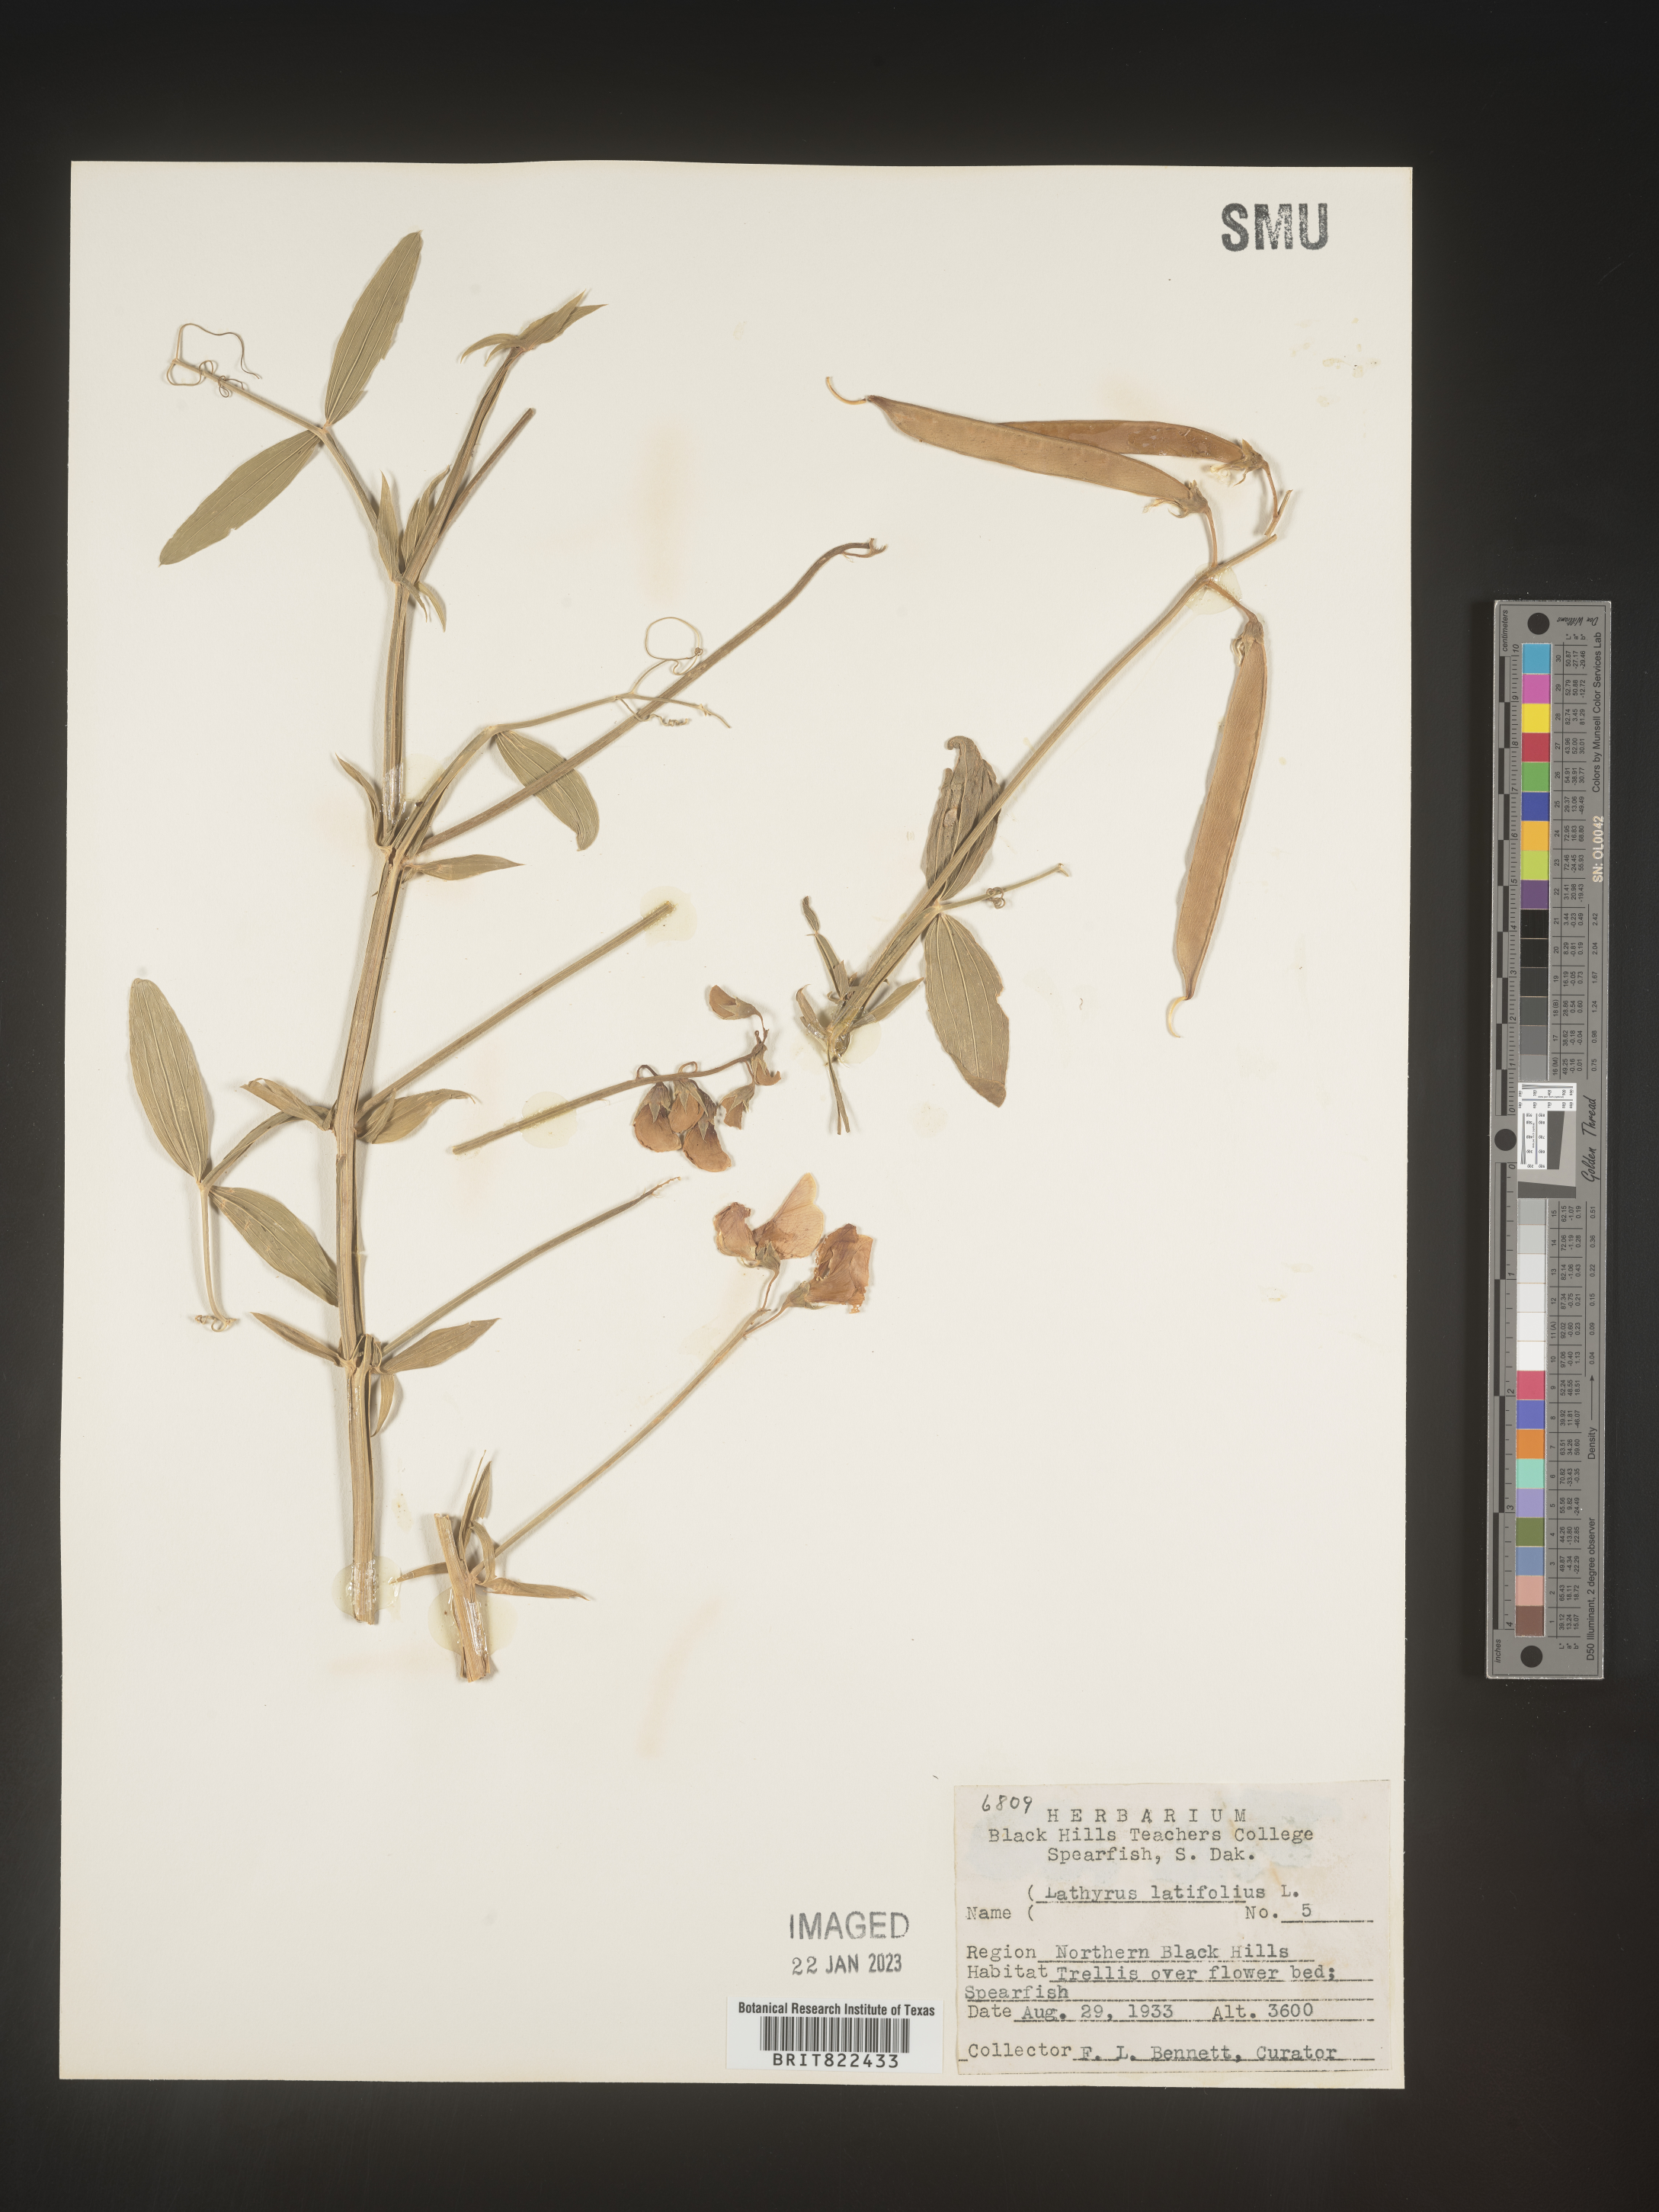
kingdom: Plantae
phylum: Tracheophyta
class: Magnoliopsida
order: Fabales
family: Fabaceae
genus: Lathyrus
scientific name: Lathyrus
